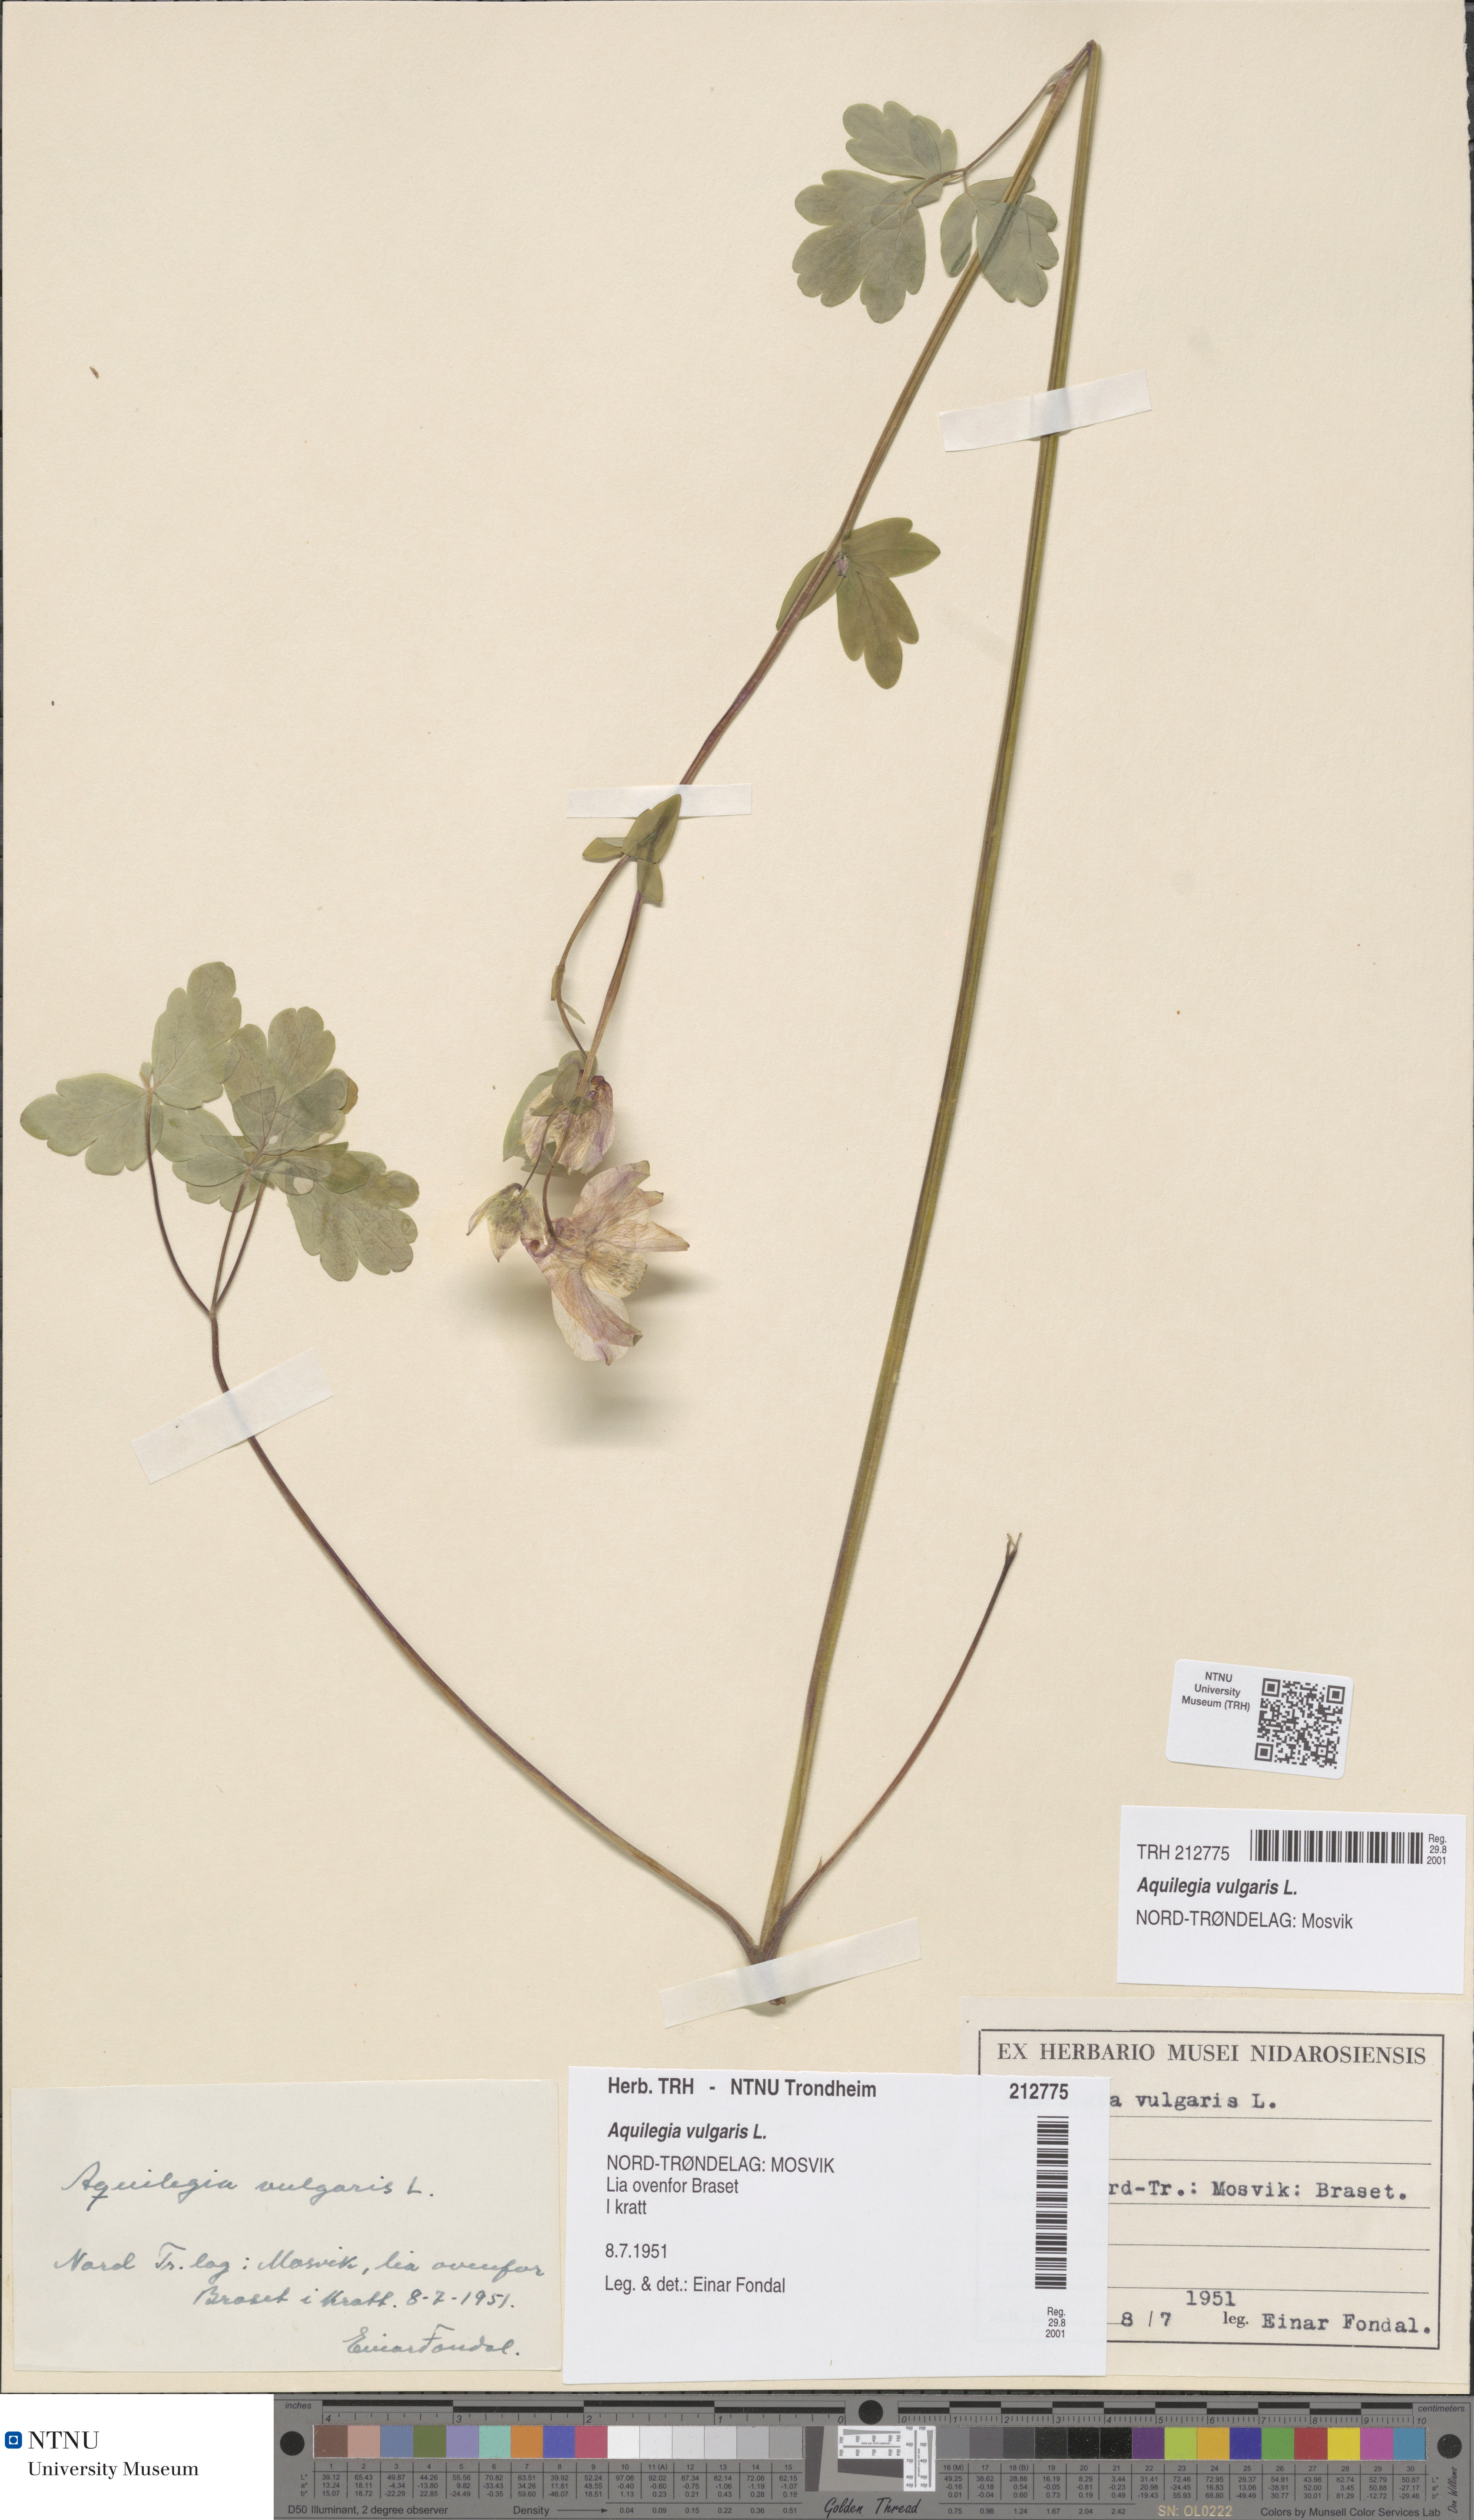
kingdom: Plantae
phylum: Tracheophyta
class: Magnoliopsida
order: Ranunculales
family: Ranunculaceae
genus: Aquilegia
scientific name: Aquilegia vulgaris
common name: Columbine
